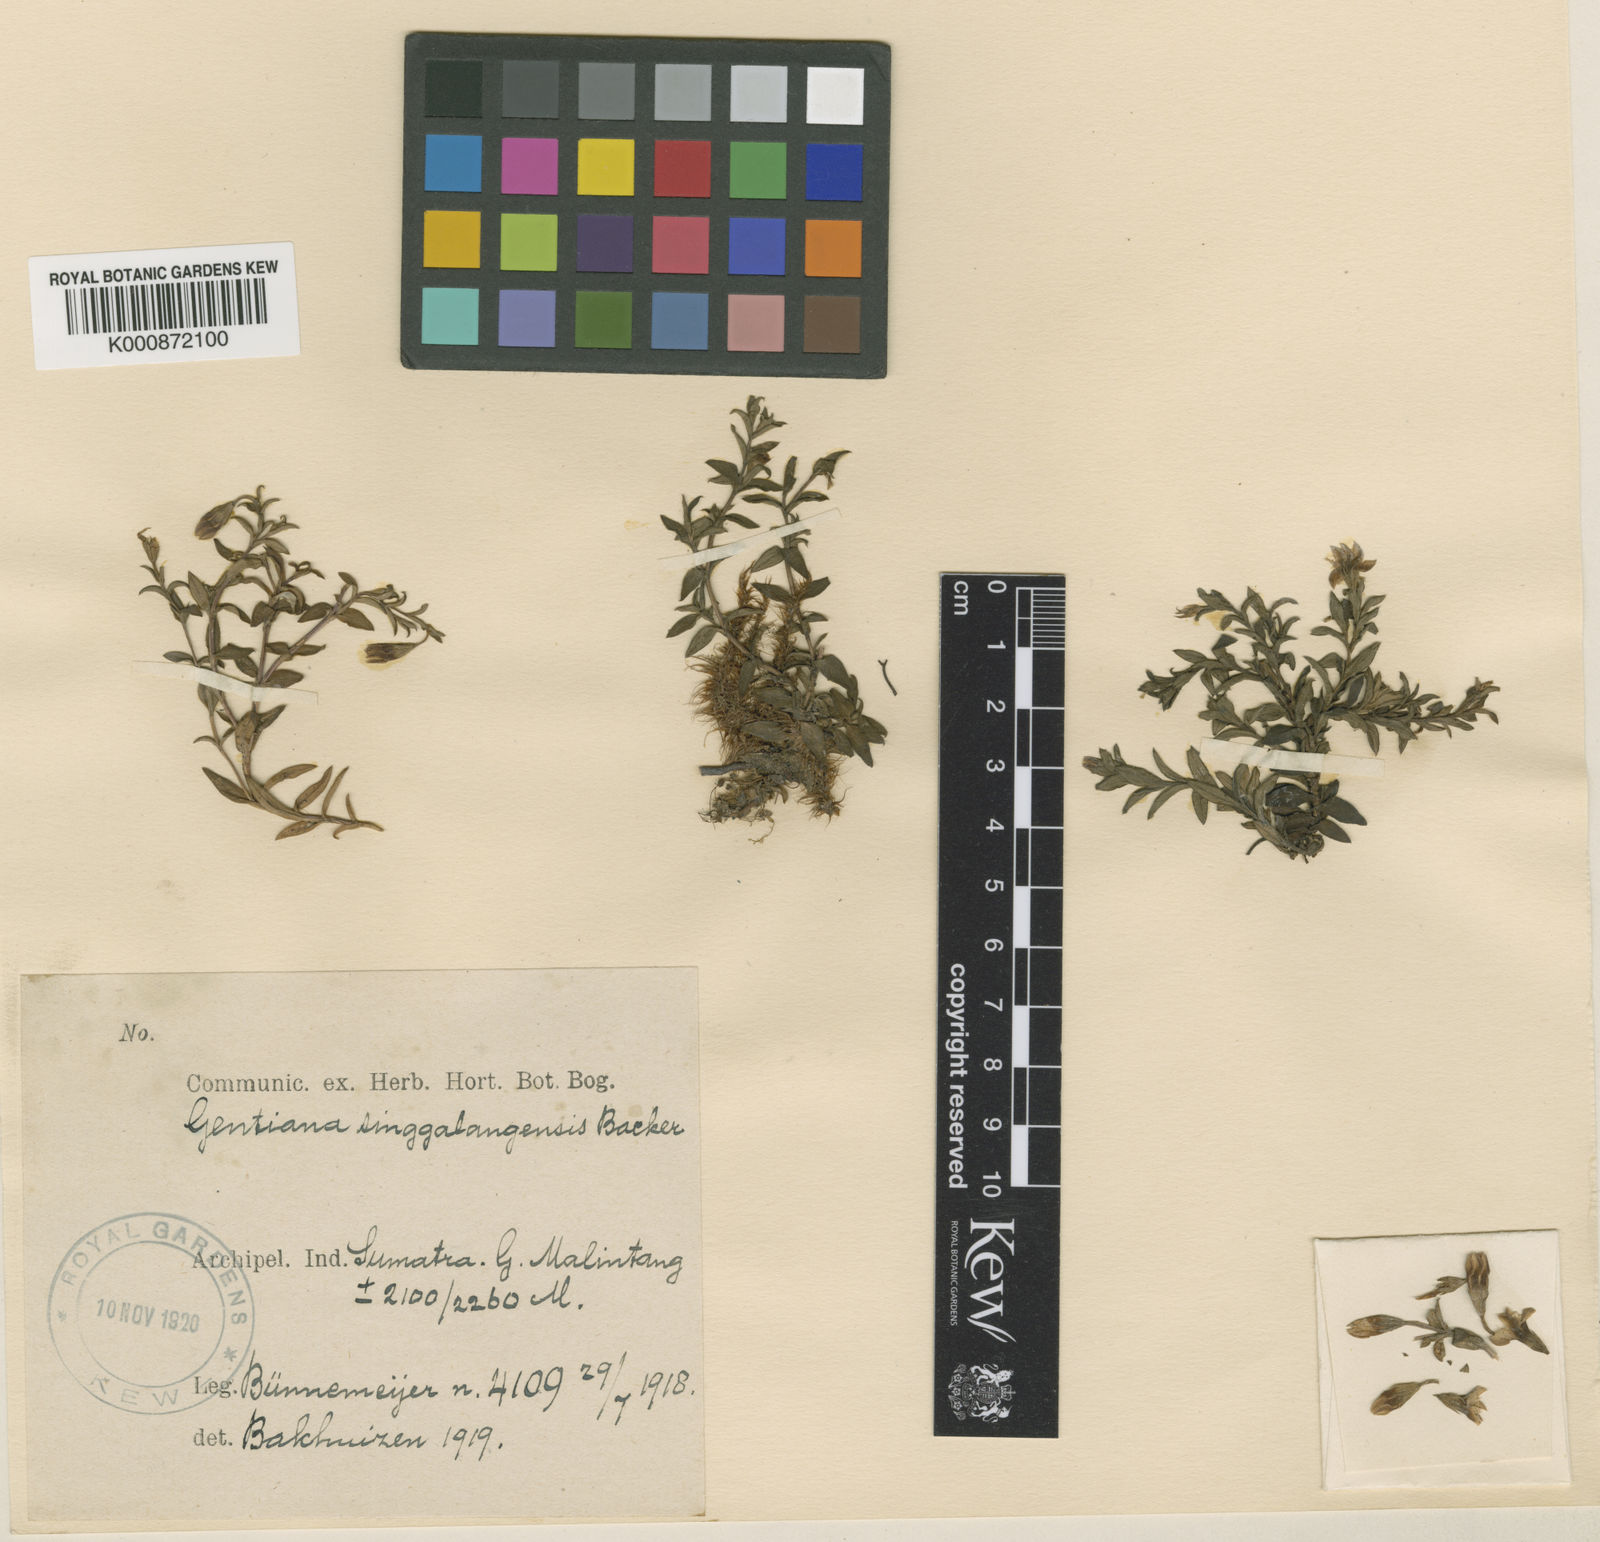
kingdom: Plantae
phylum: Tracheophyta
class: Magnoliopsida
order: Gentianales
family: Gentianaceae
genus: Gentiana
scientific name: Gentiana sumatrana
